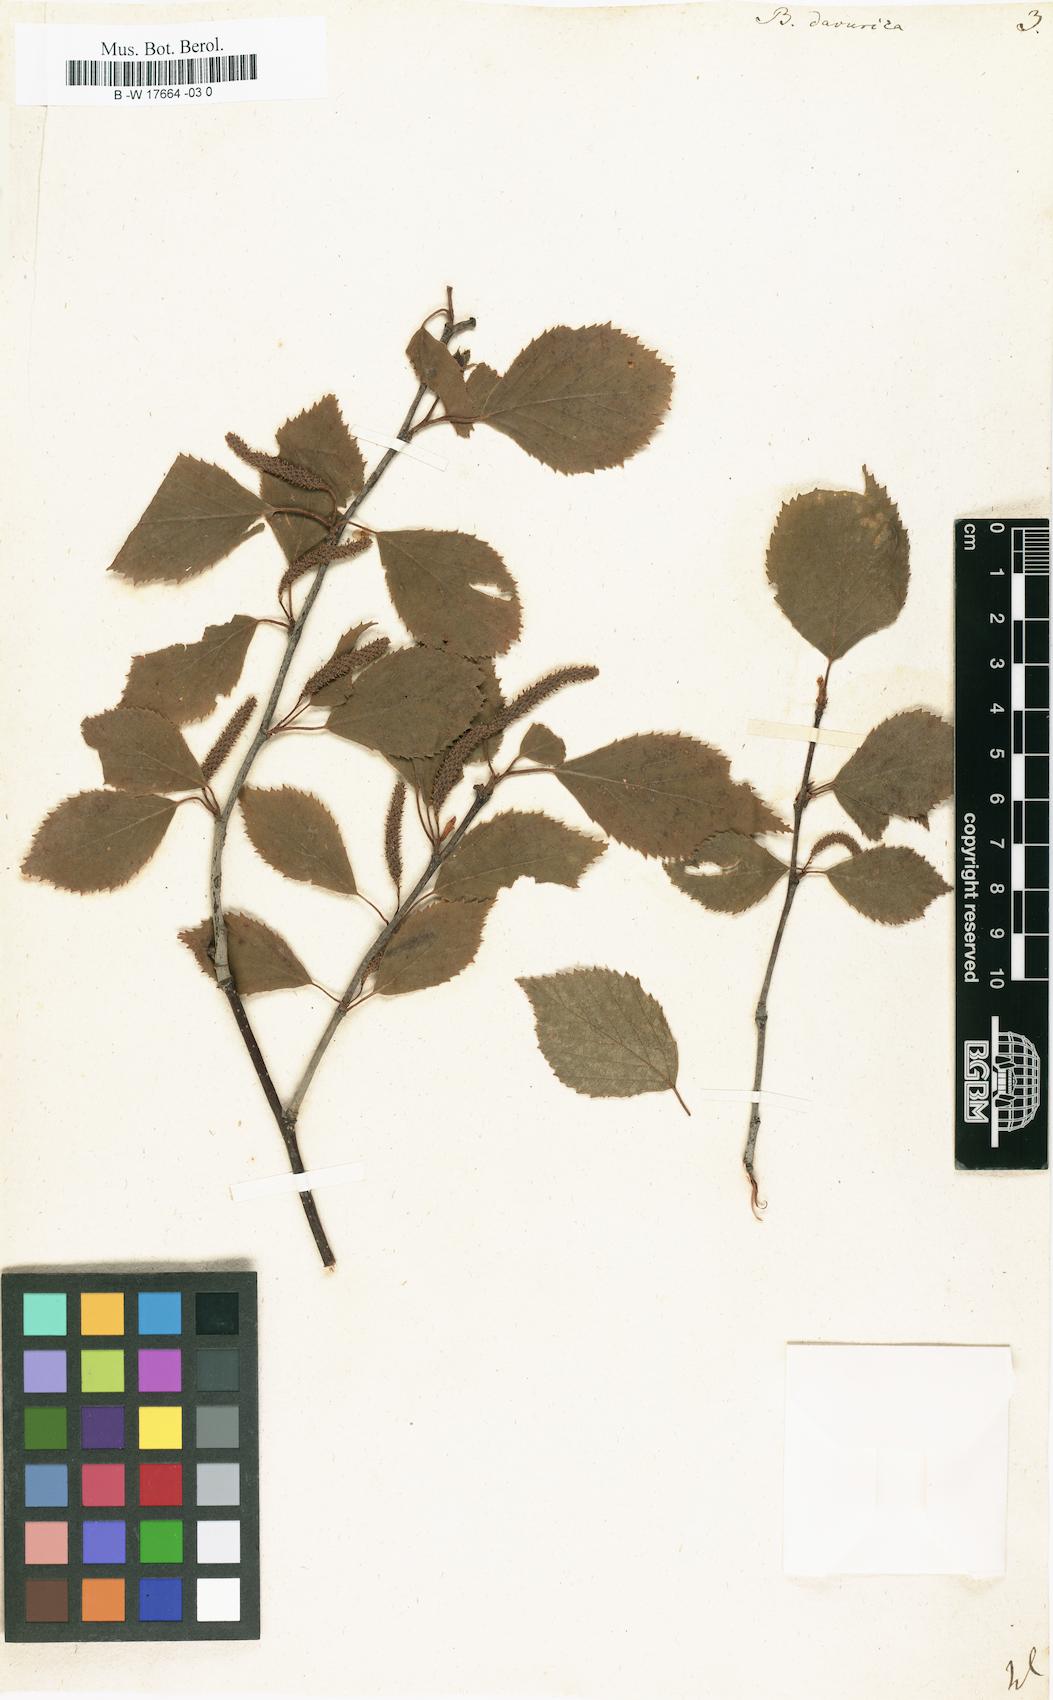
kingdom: Plantae
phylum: Tracheophyta
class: Magnoliopsida
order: Fagales
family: Betulaceae
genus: Betula
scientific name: Betula davurica
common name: Black birch
